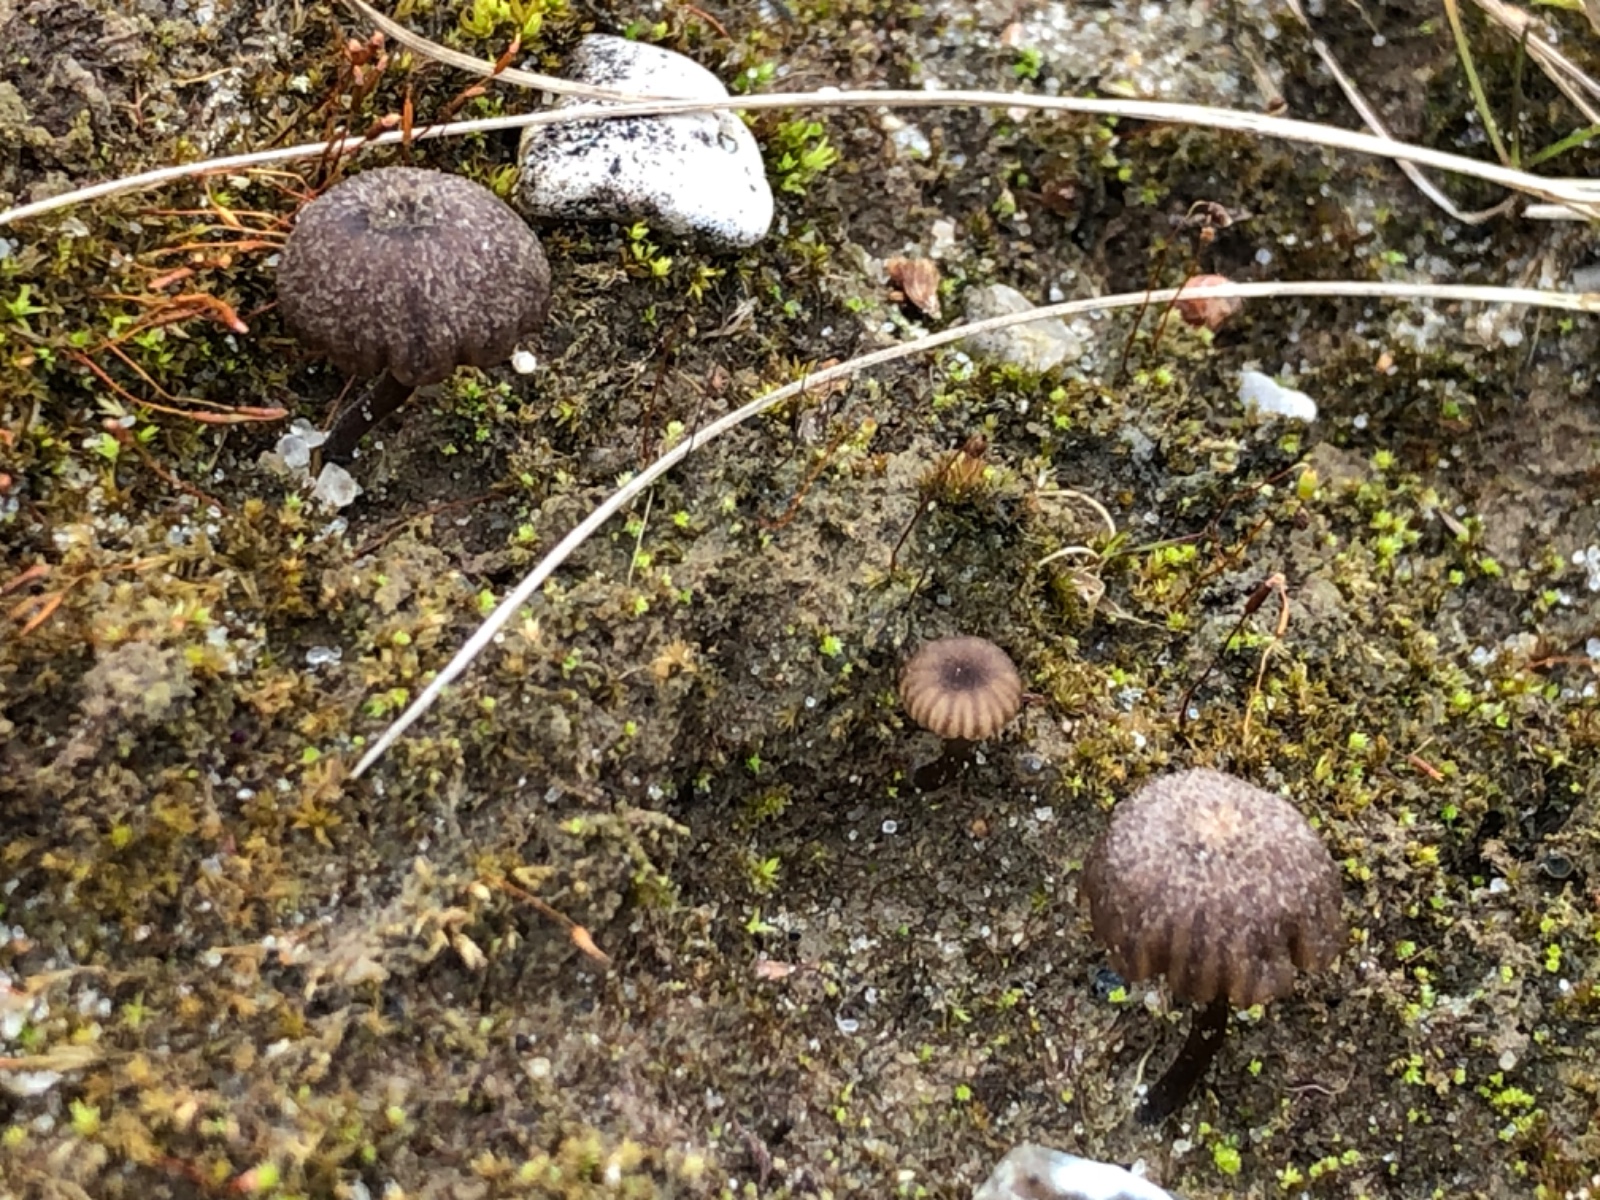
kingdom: Fungi
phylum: Basidiomycota
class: Agaricomycetes
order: Agaricales
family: Hygrophoraceae
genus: Arrhenia
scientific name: Arrhenia
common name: fontænehat
